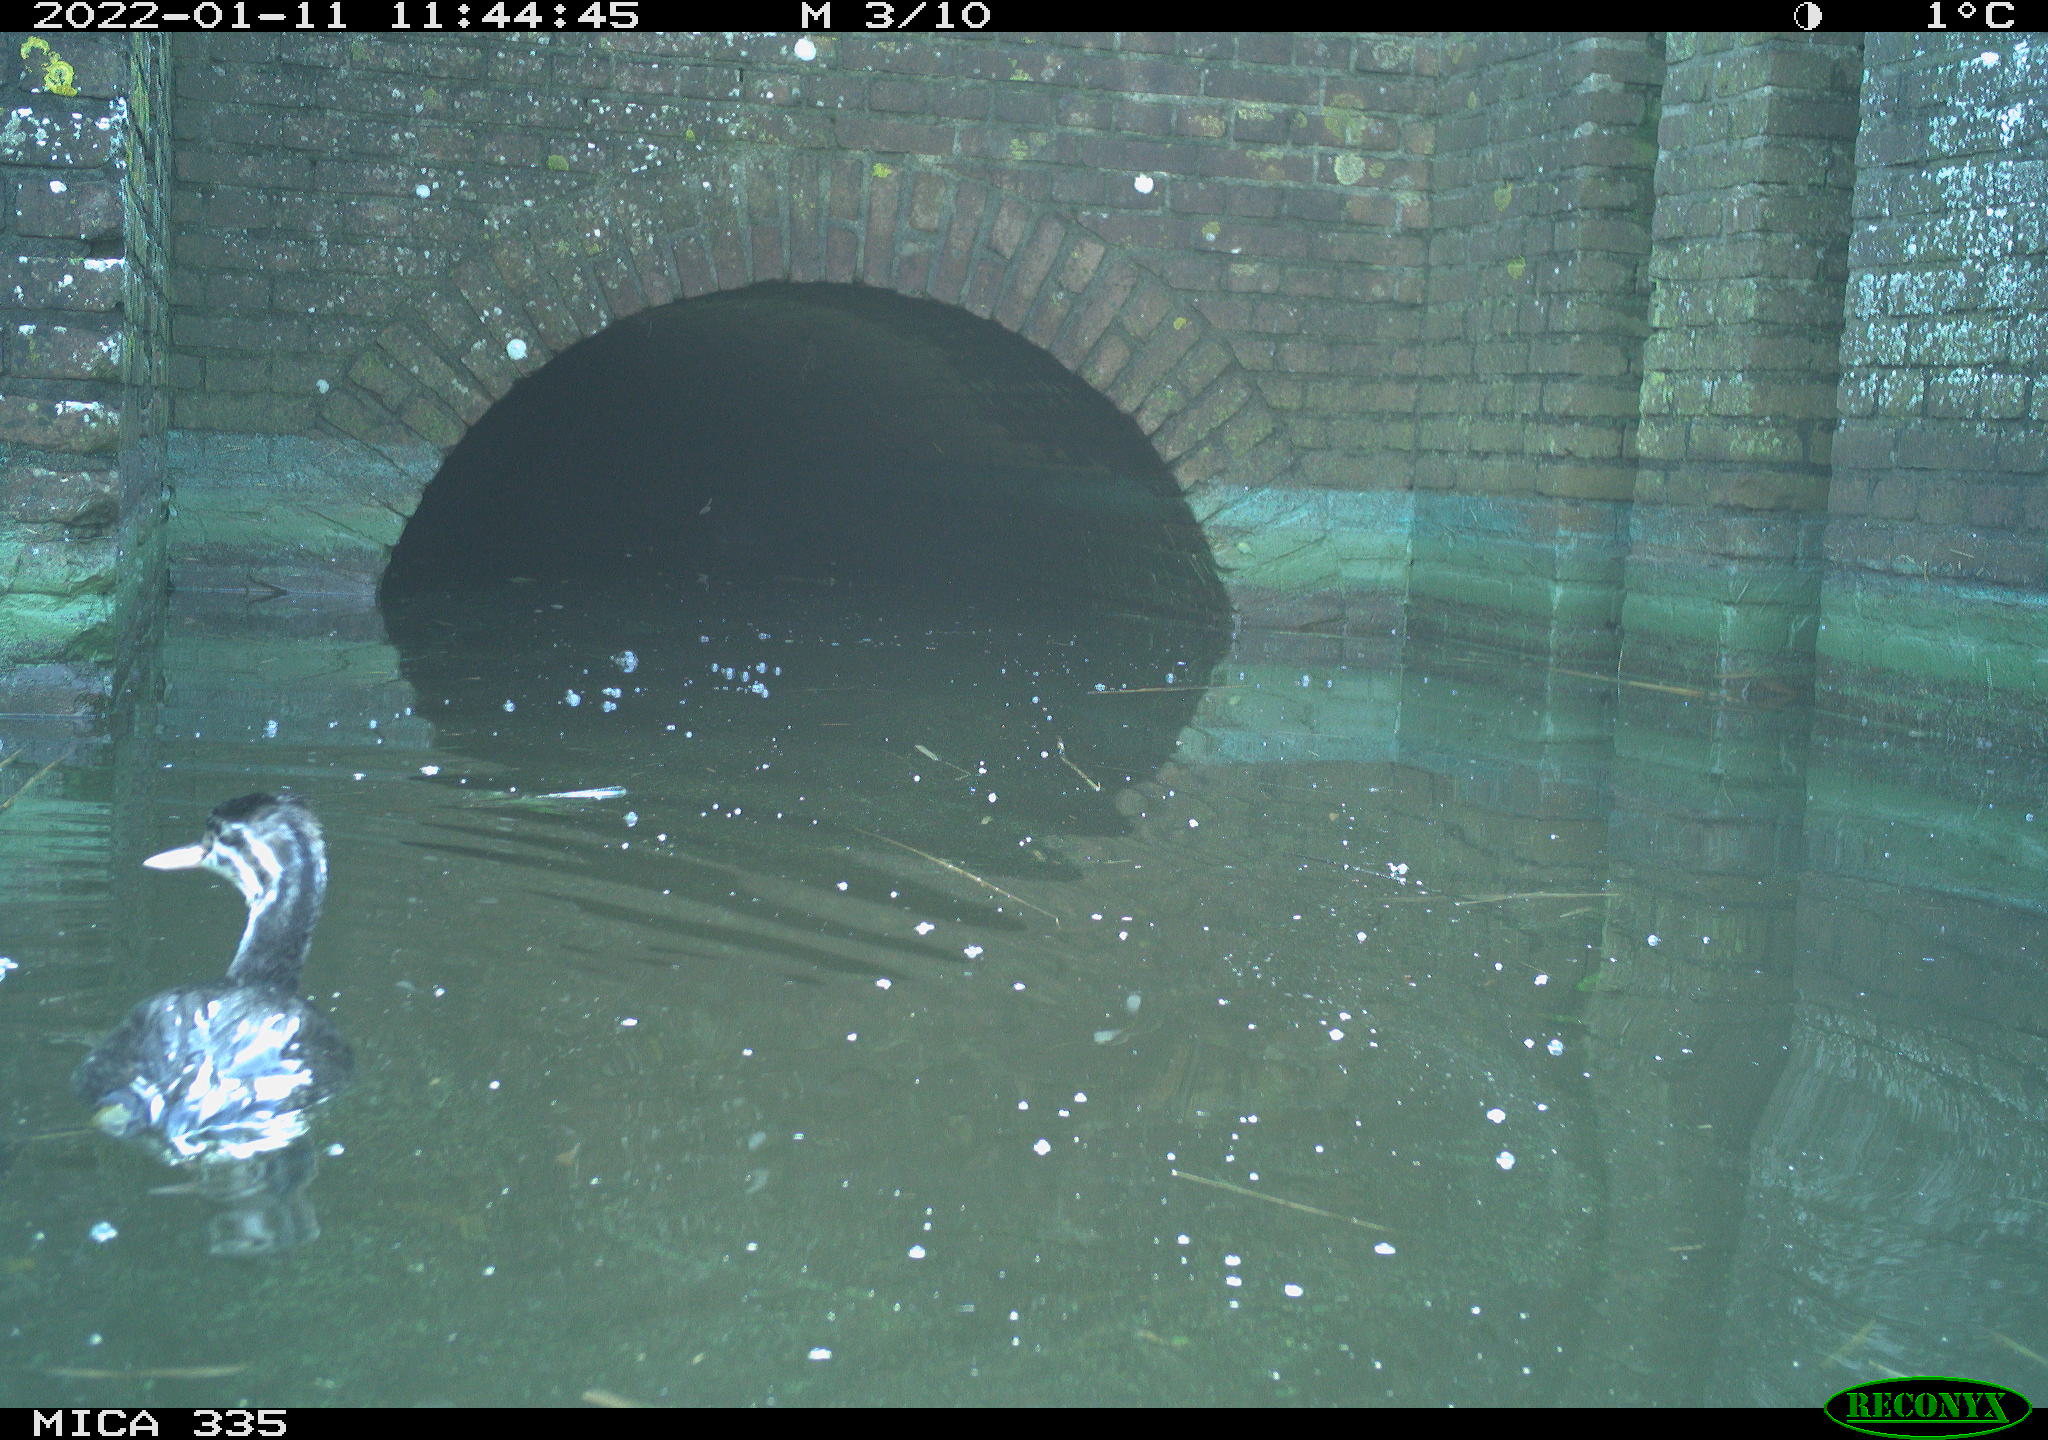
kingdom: Animalia
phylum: Chordata
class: Aves
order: Gruiformes
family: Rallidae
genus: Fulica
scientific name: Fulica atra
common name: Eurasian coot
